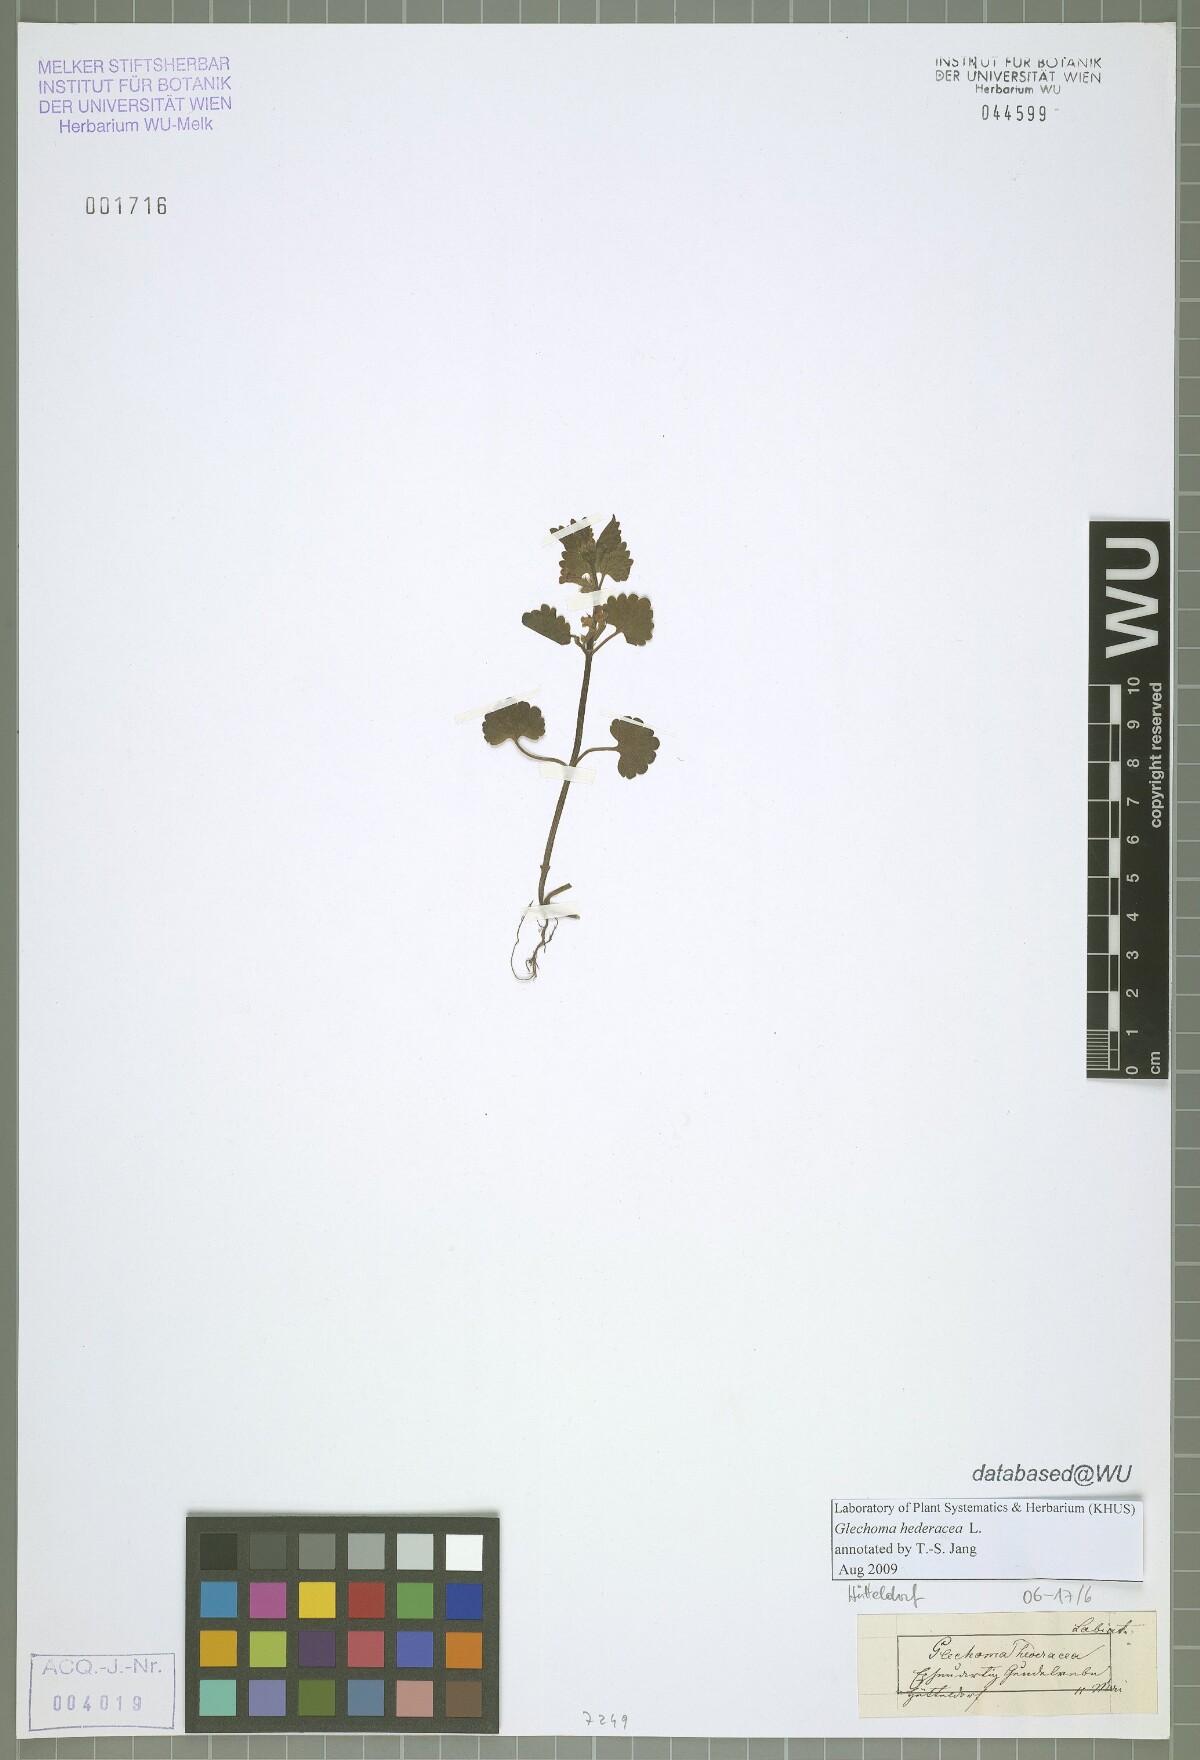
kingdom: Plantae
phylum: Tracheophyta
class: Magnoliopsida
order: Lamiales
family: Lamiaceae
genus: Glechoma
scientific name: Glechoma hederacea
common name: Ground ivy
